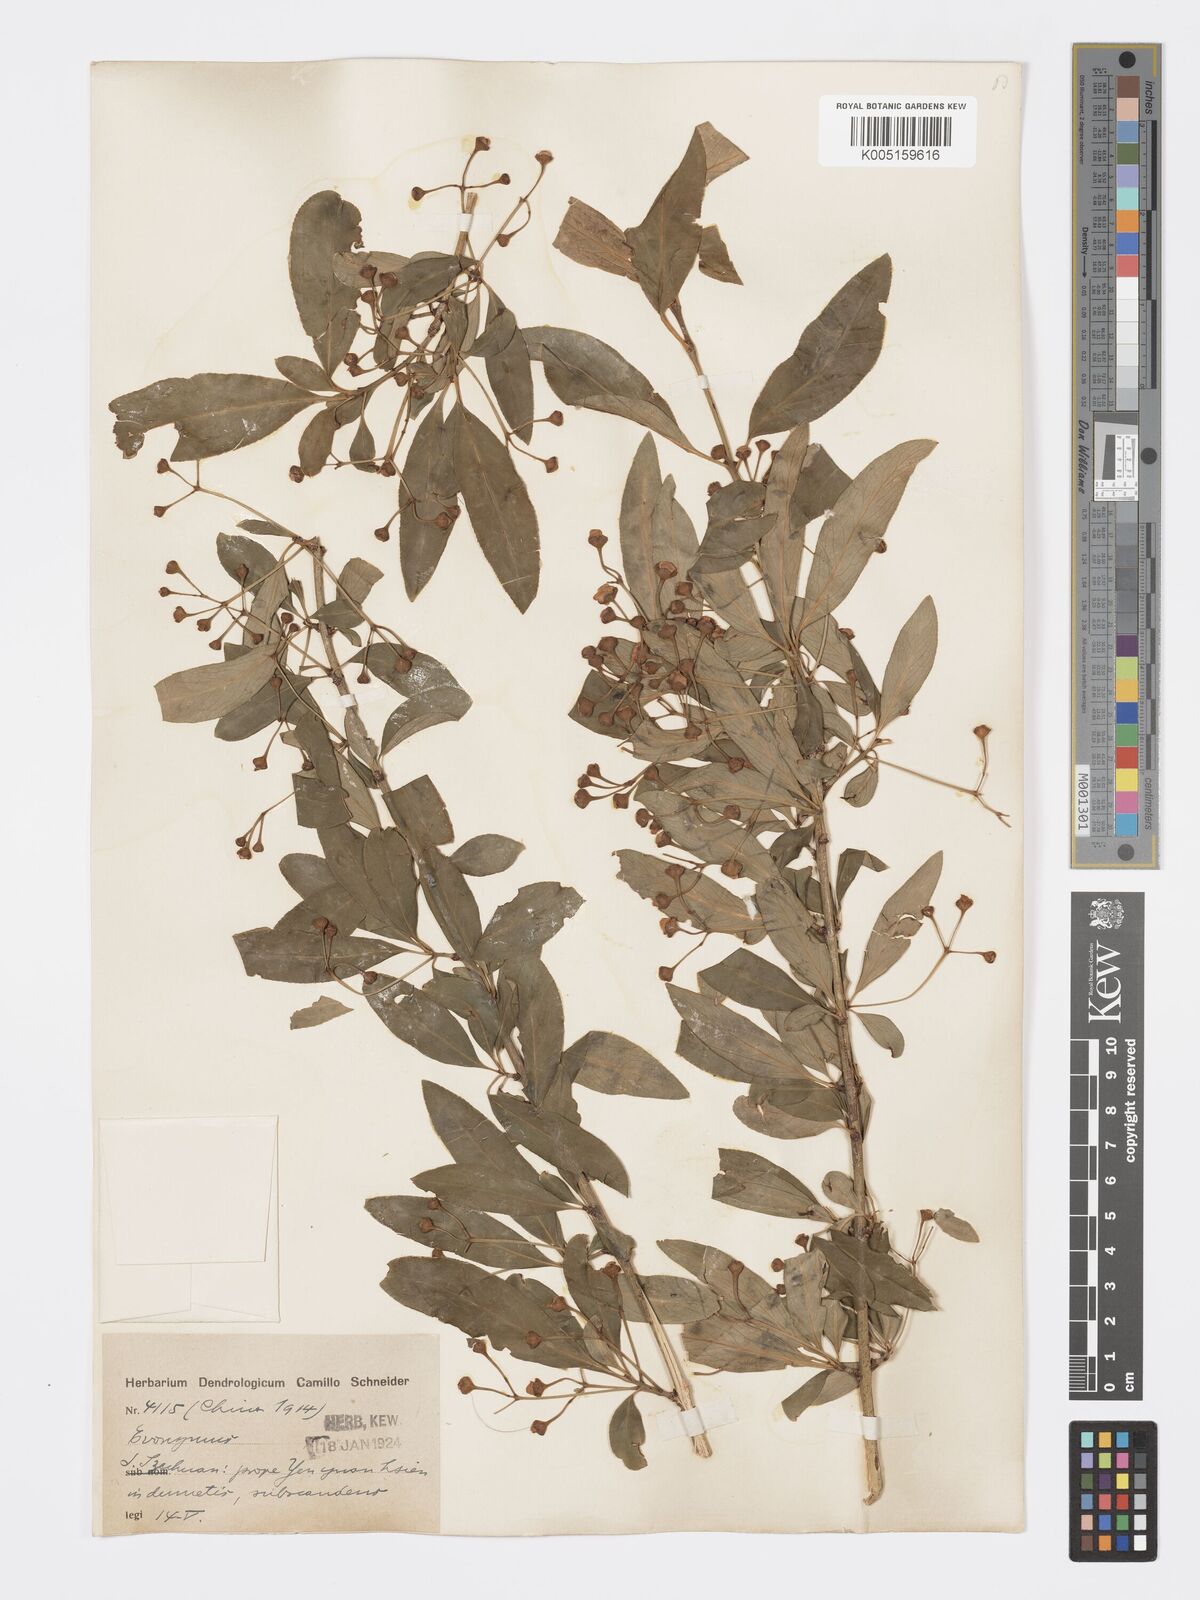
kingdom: Plantae
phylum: Tracheophyta
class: Magnoliopsida
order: Celastrales
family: Celastraceae
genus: Euonymus
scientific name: Euonymus grandiflorus
